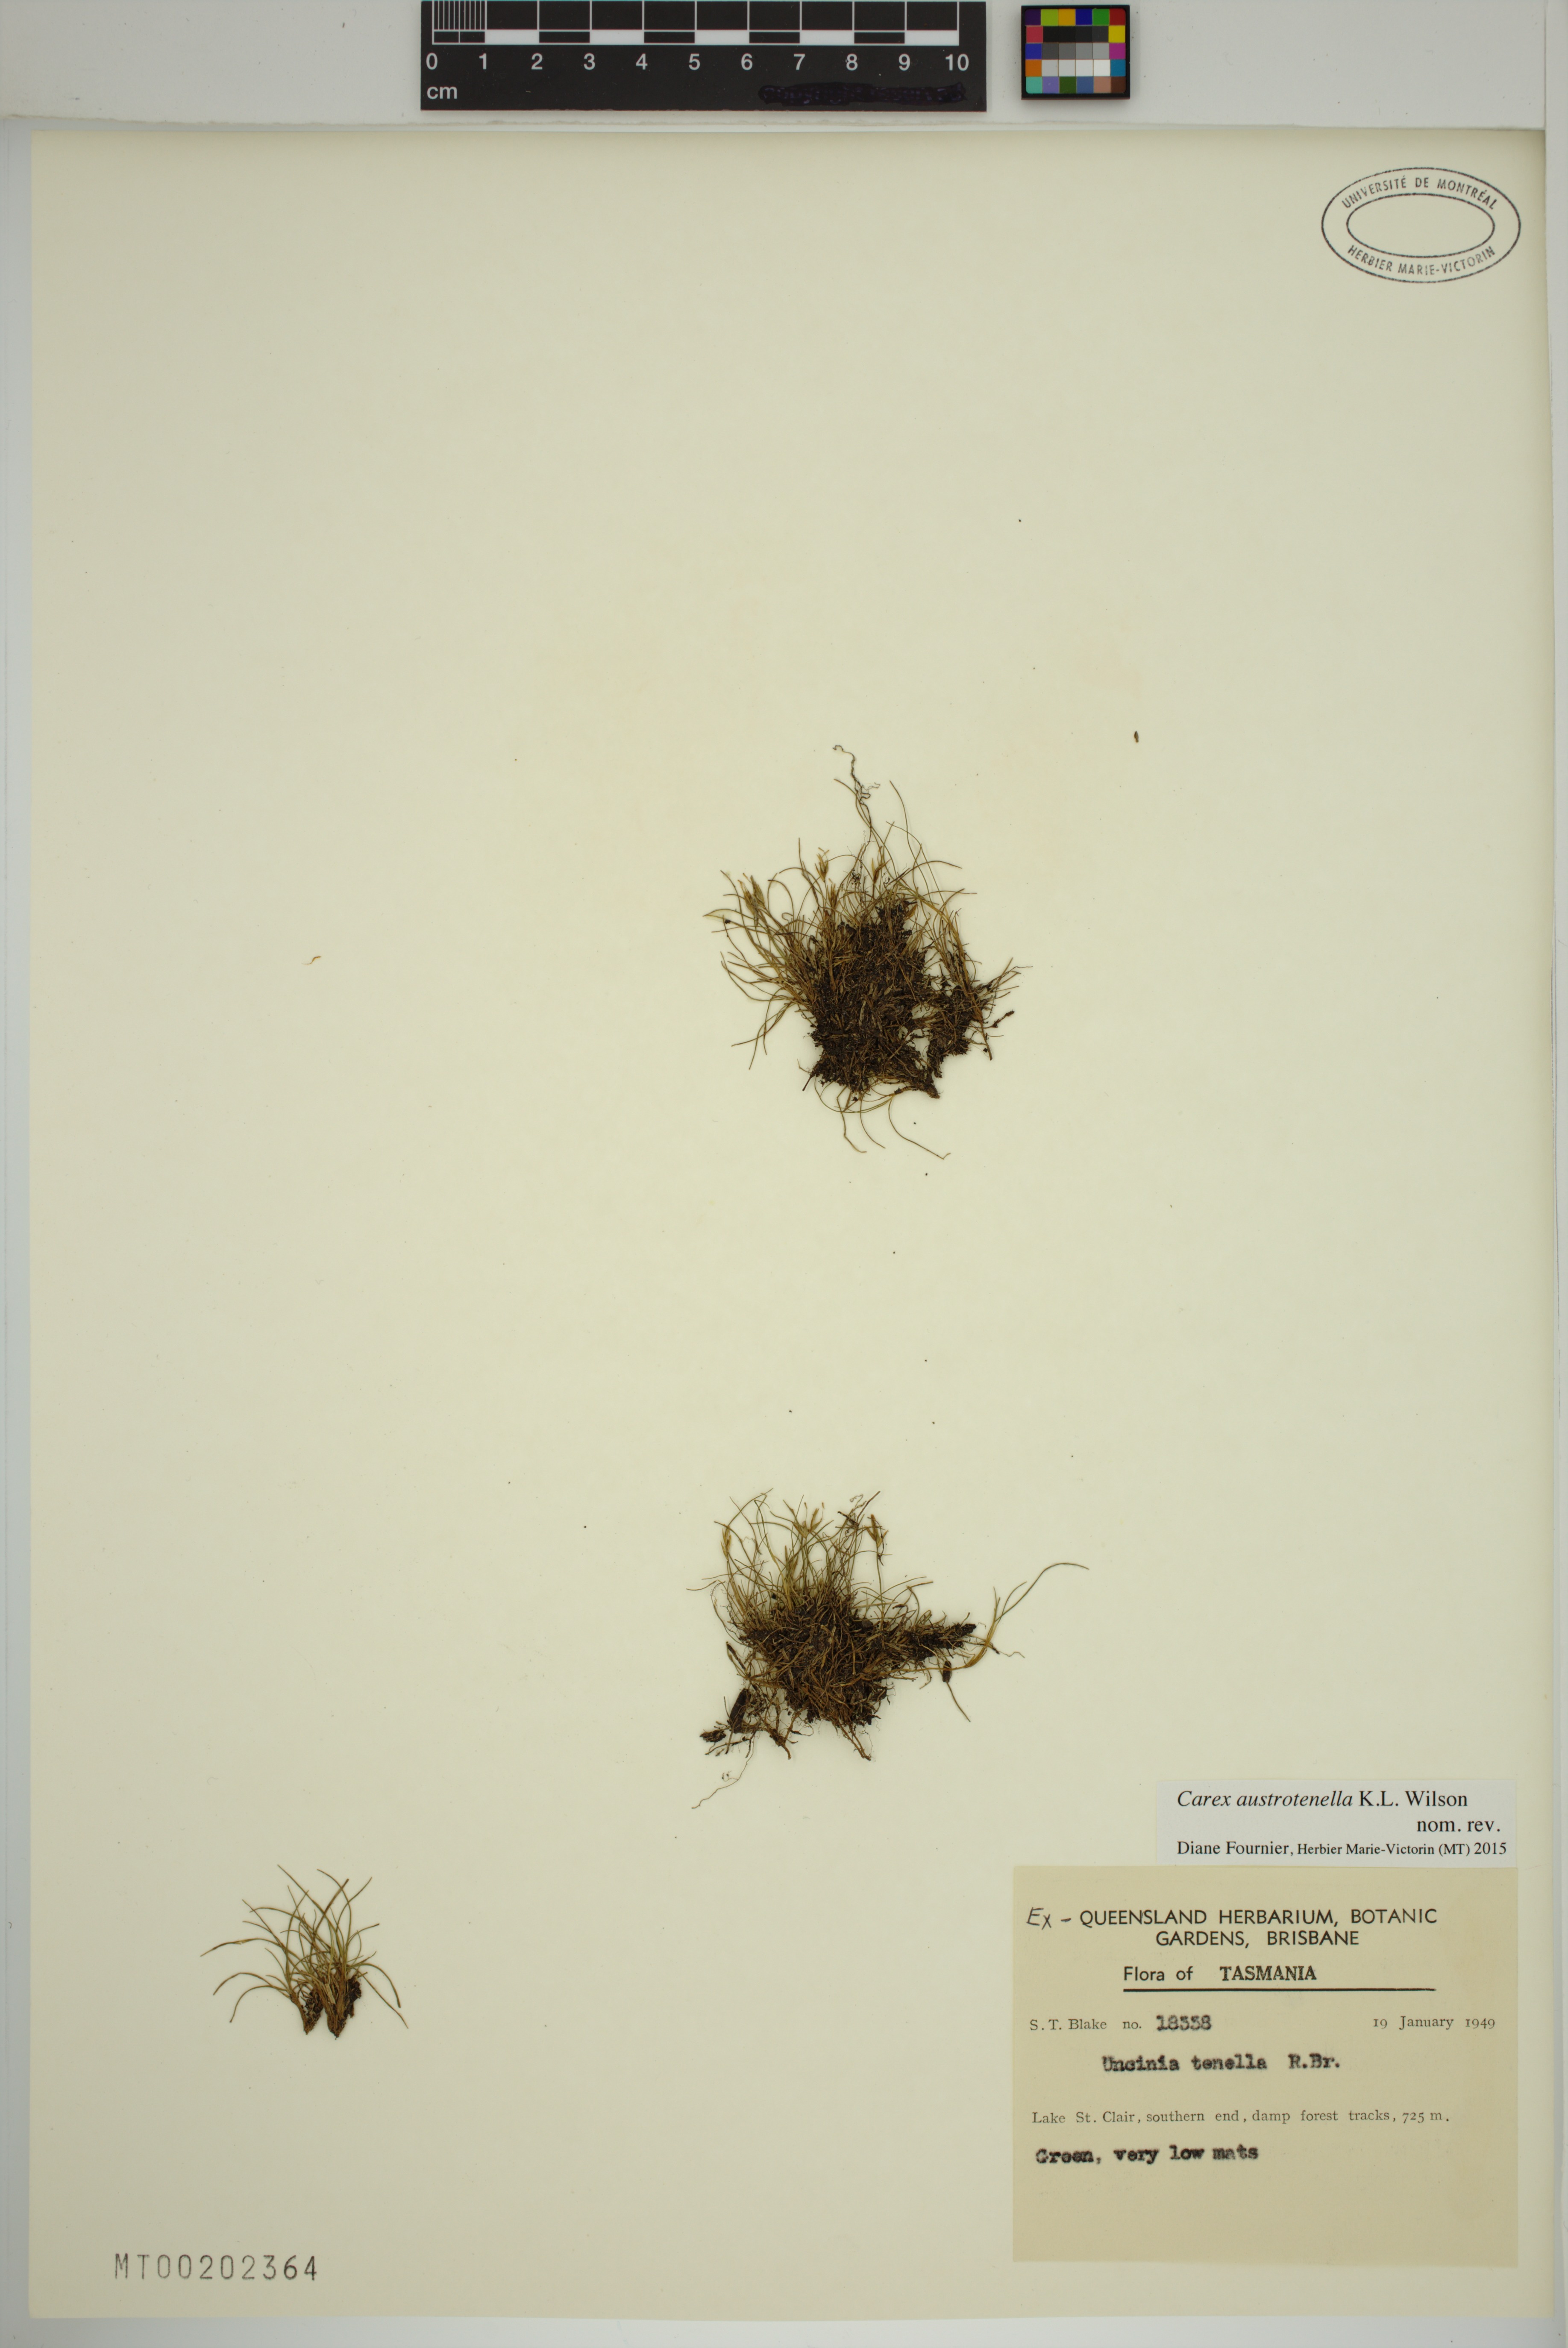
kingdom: Plantae
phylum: Tracheophyta
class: Liliopsida
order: Poales
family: Cyperaceae
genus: Carex
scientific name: Carex austrotenella
